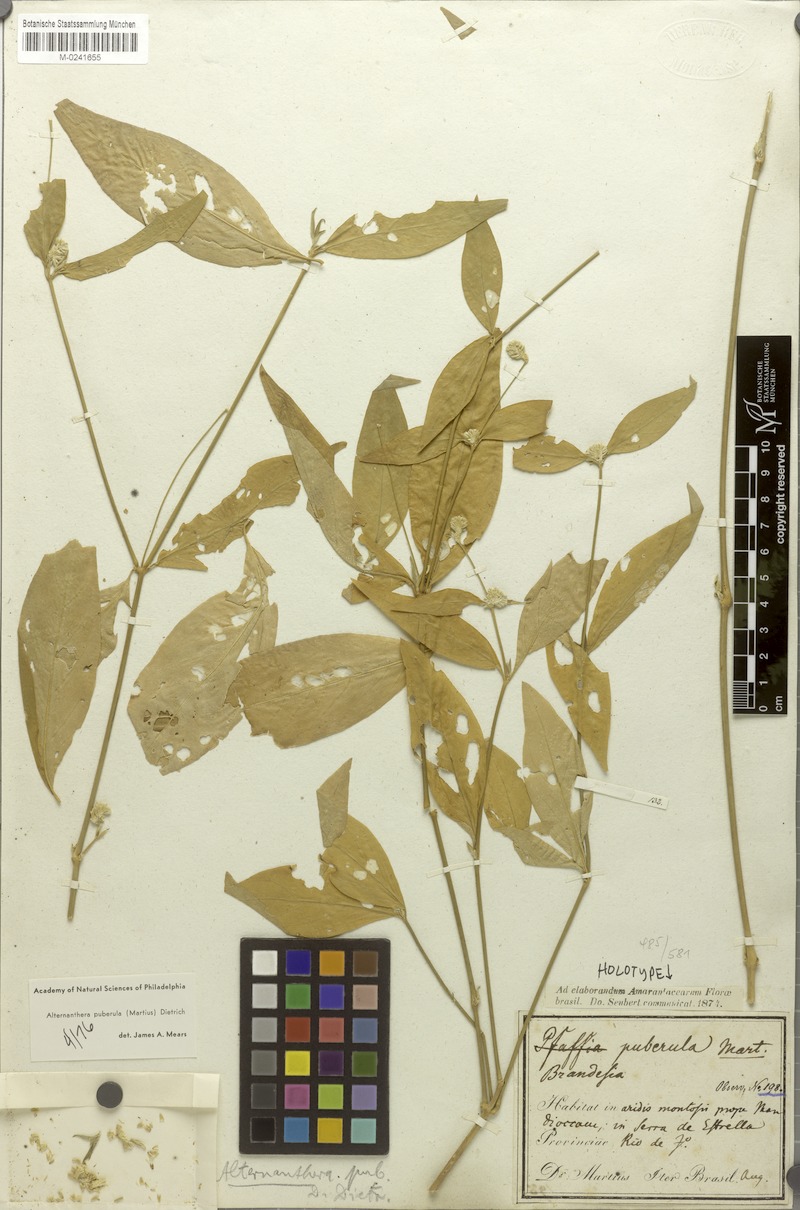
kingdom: Plantae
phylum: Tracheophyta
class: Magnoliopsida
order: Caryophyllales
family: Amaranthaceae
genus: Alternanthera
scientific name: Alternanthera puberula
